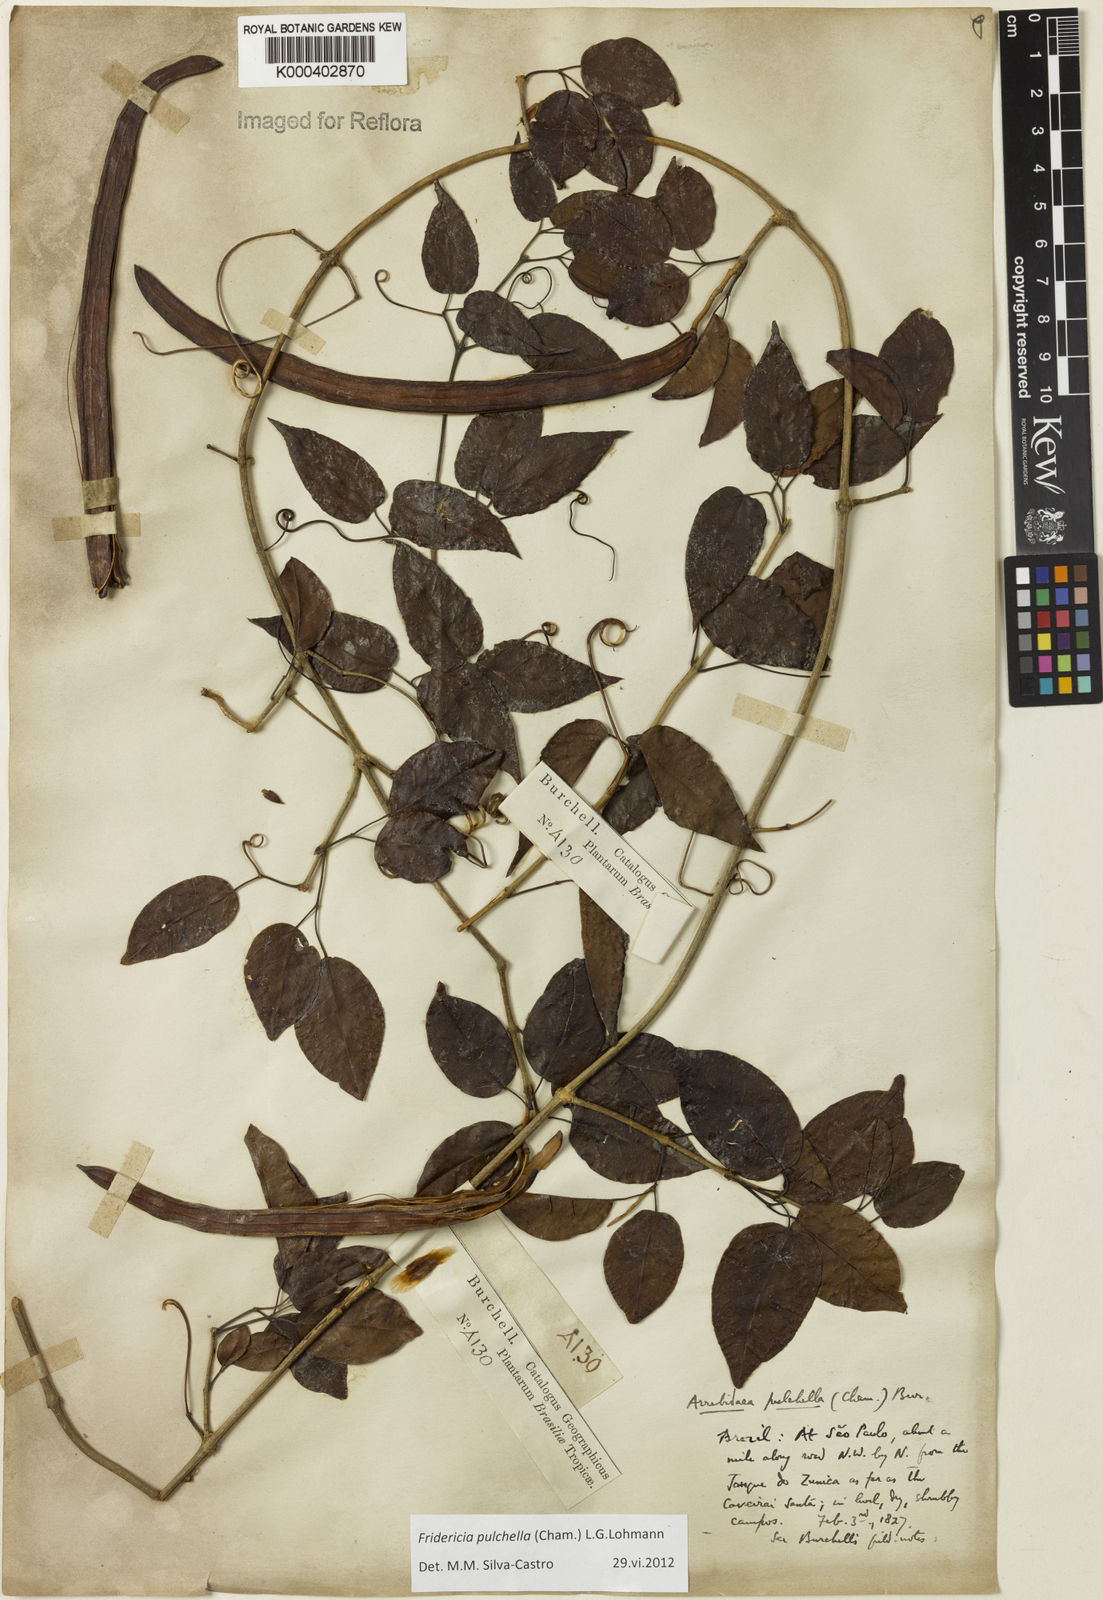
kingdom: Plantae
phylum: Tracheophyta
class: Magnoliopsida
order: Lamiales
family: Bignoniaceae
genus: Fridericia
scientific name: Fridericia
